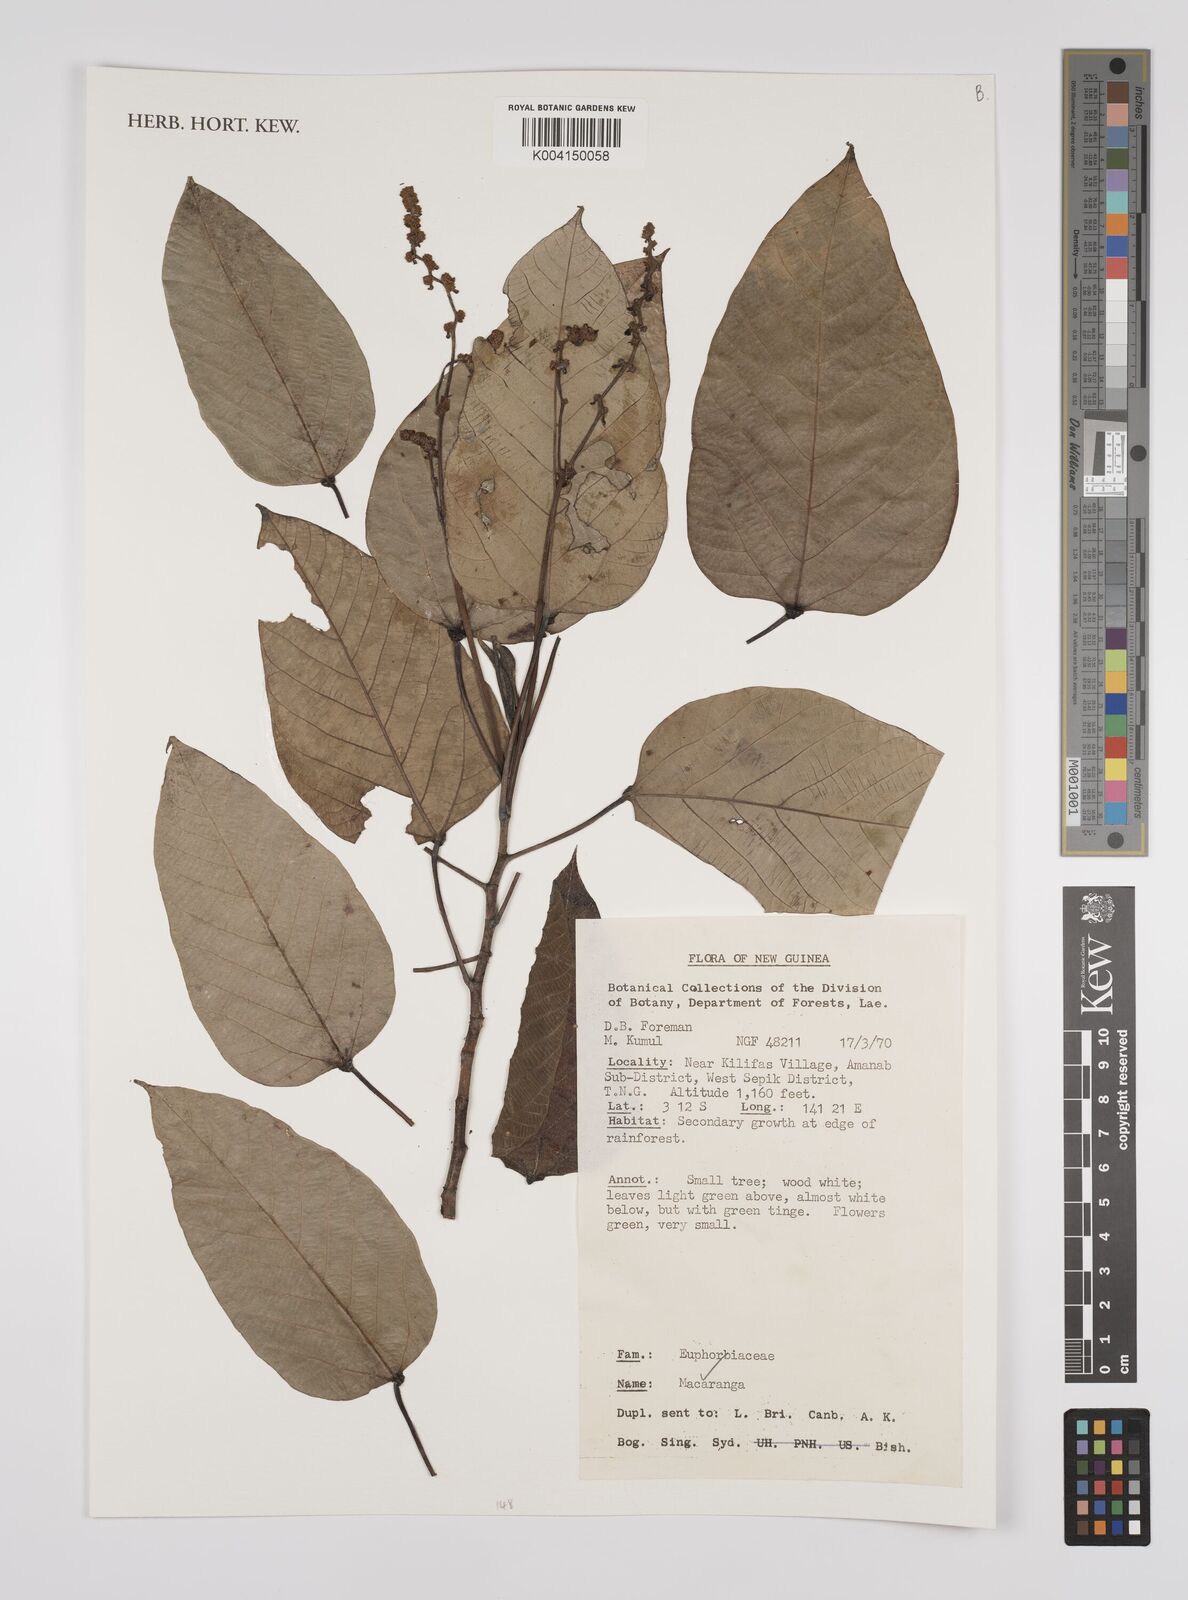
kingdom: Plantae
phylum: Tracheophyta
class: Magnoliopsida
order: Malpighiales
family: Euphorbiaceae
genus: Macaranga
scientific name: Macaranga
